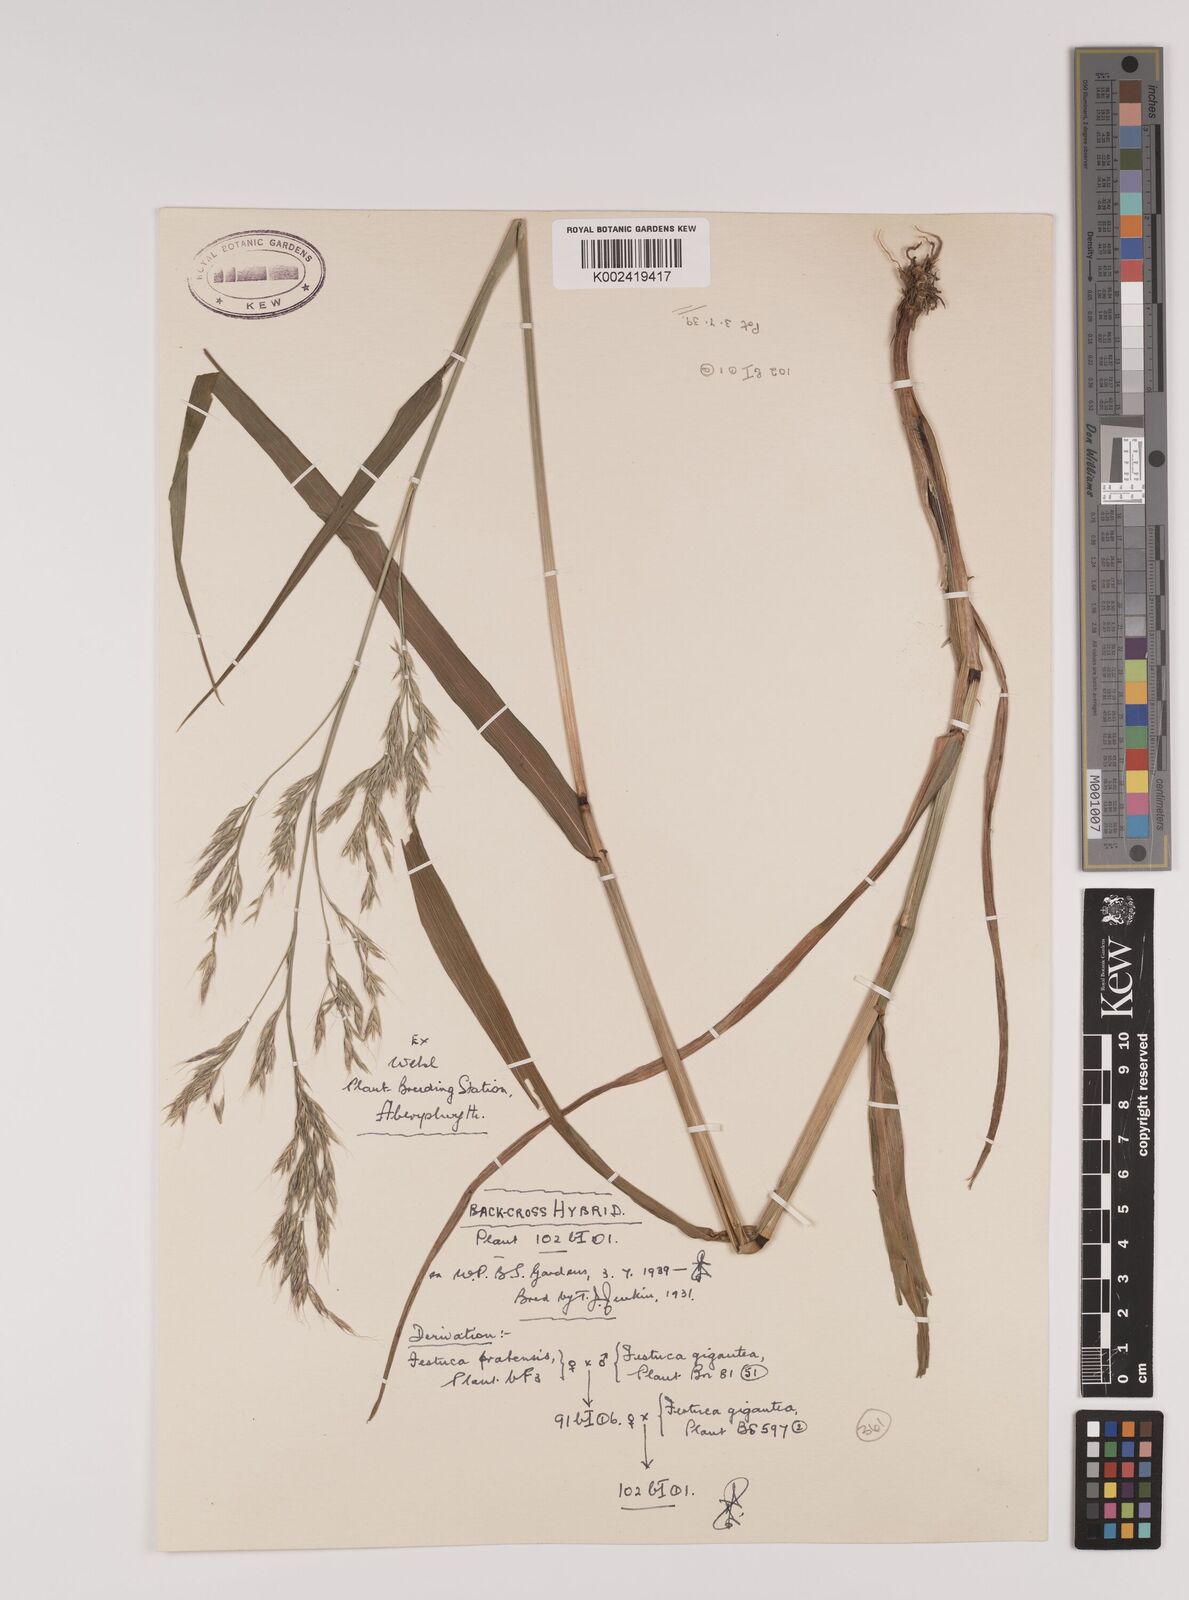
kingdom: Plantae
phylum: Tracheophyta
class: Liliopsida
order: Poales
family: Poaceae
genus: Lolium
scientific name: Lolium giganteum
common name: Giant fescue
